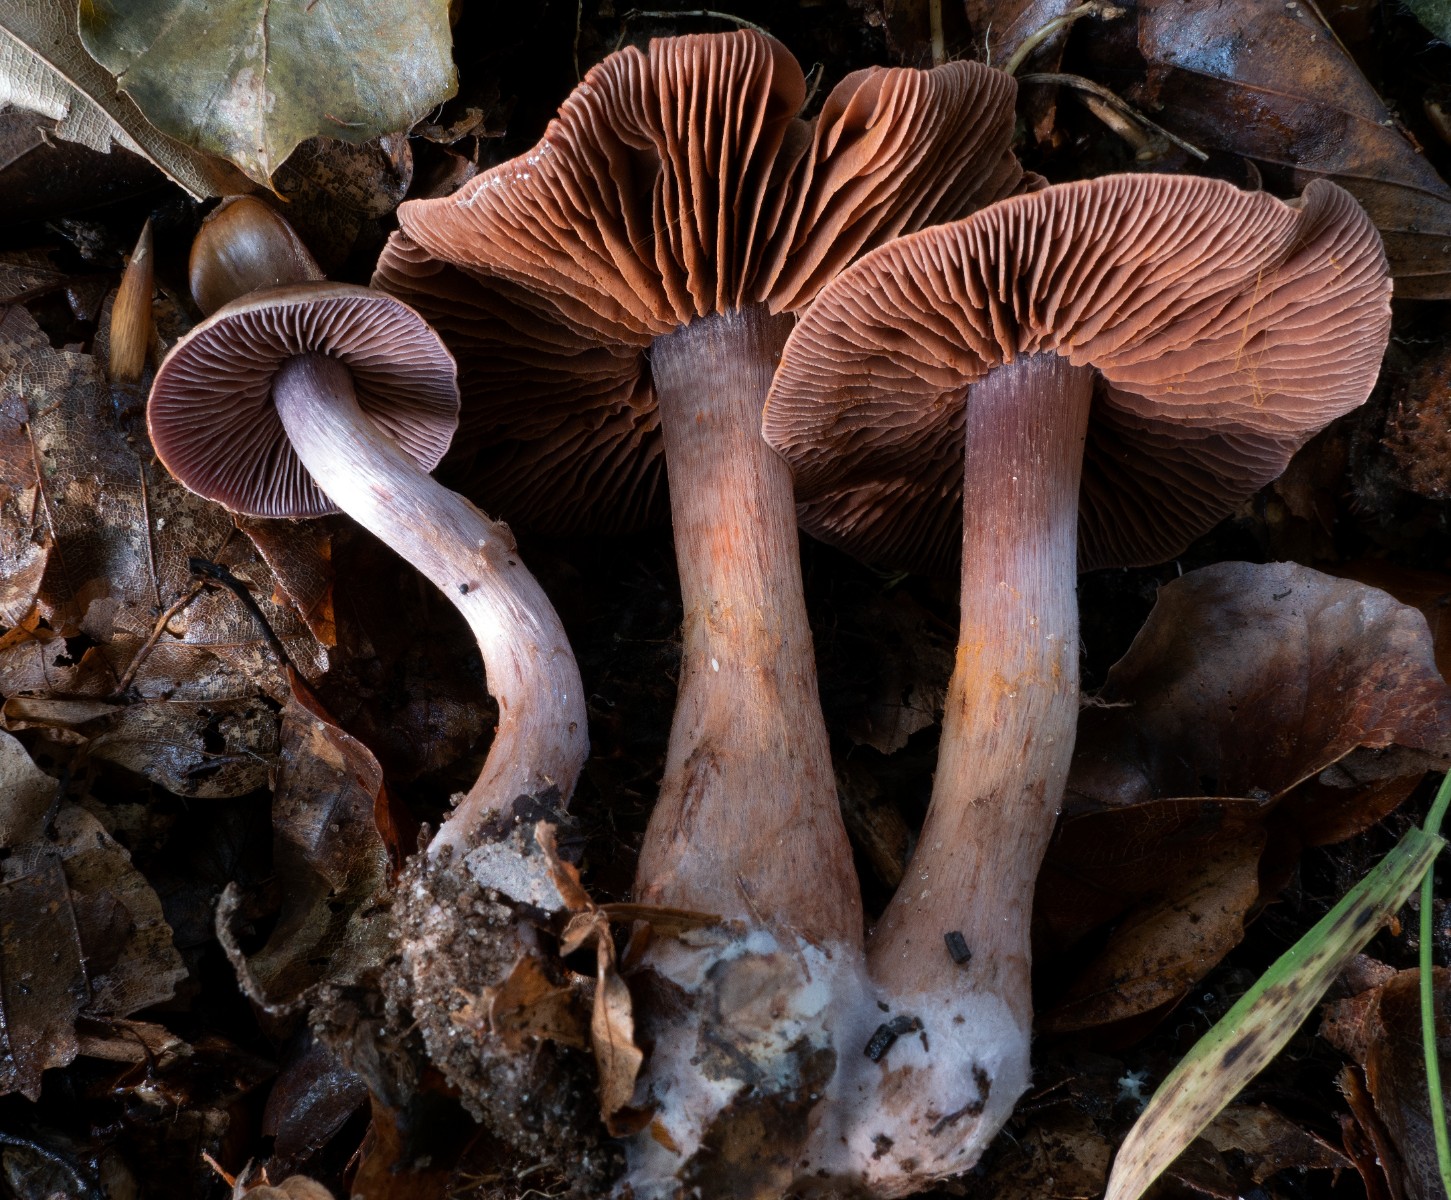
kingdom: Fungi
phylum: Basidiomycota
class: Agaricomycetes
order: Agaricales
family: Cortinariaceae
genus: Cortinarius
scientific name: Cortinarius danicus
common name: dansk slørhat
